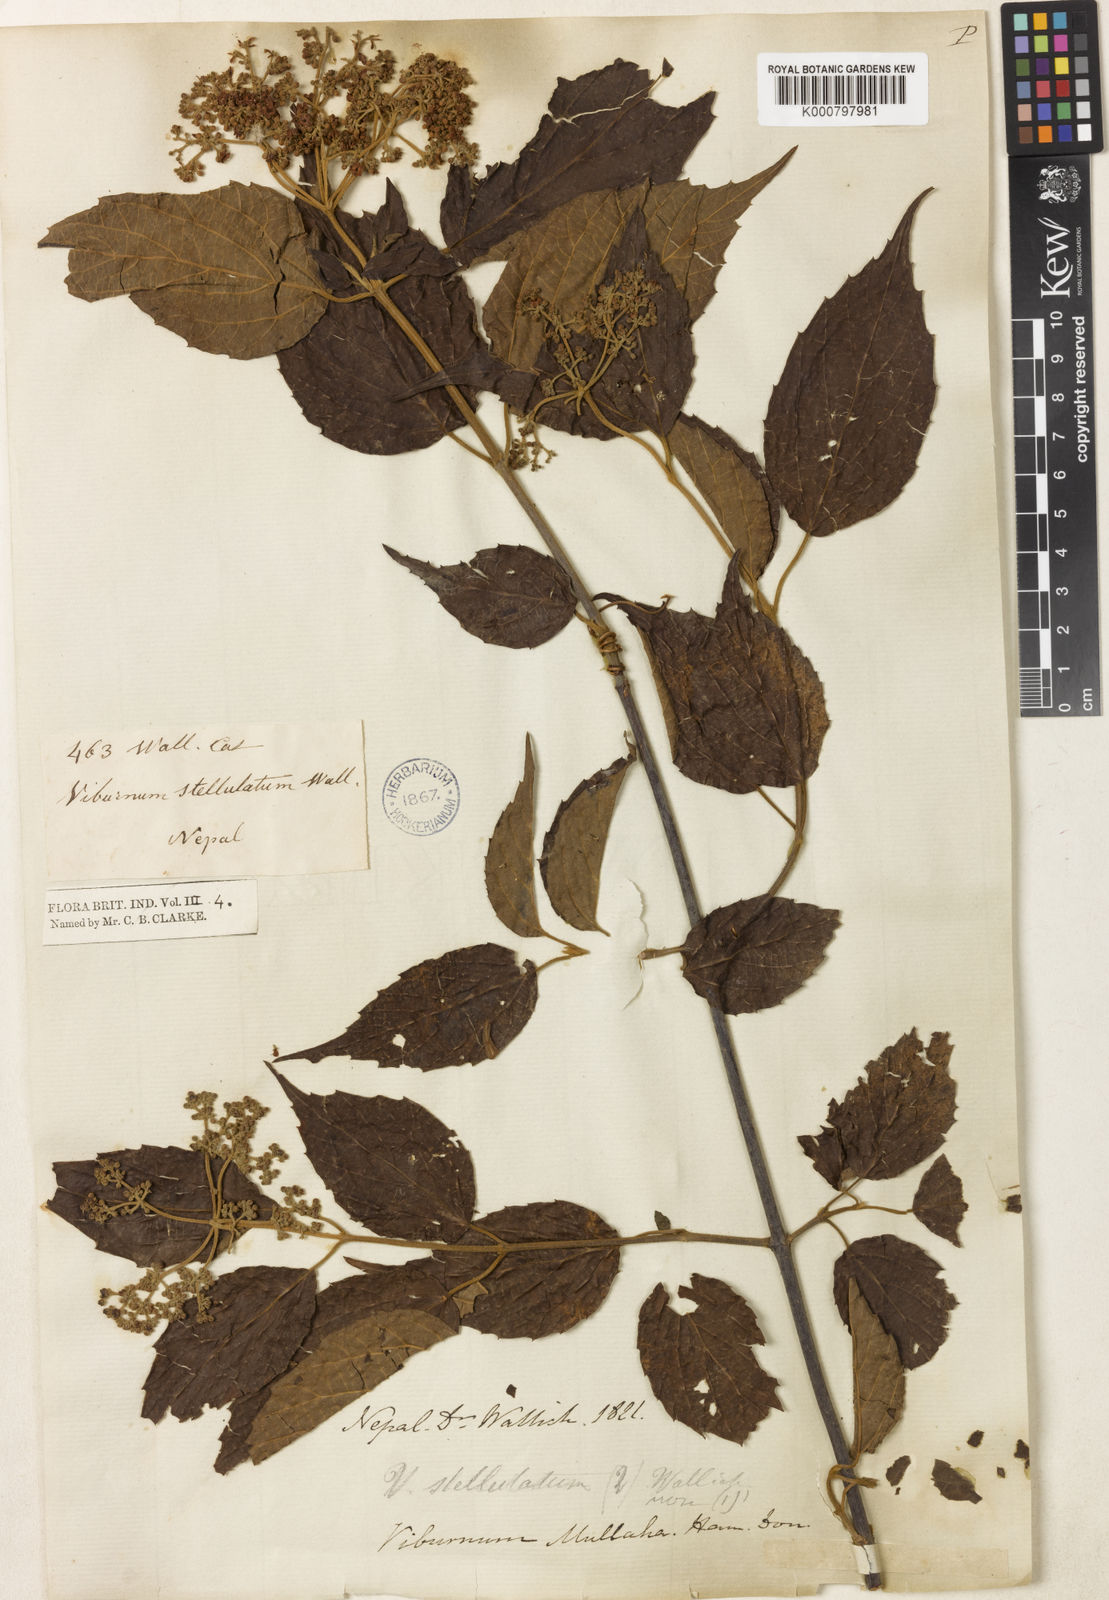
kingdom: Plantae
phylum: Tracheophyta
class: Magnoliopsida
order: Dipsacales
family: Viburnaceae
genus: Viburnum
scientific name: Viburnum mullaha
